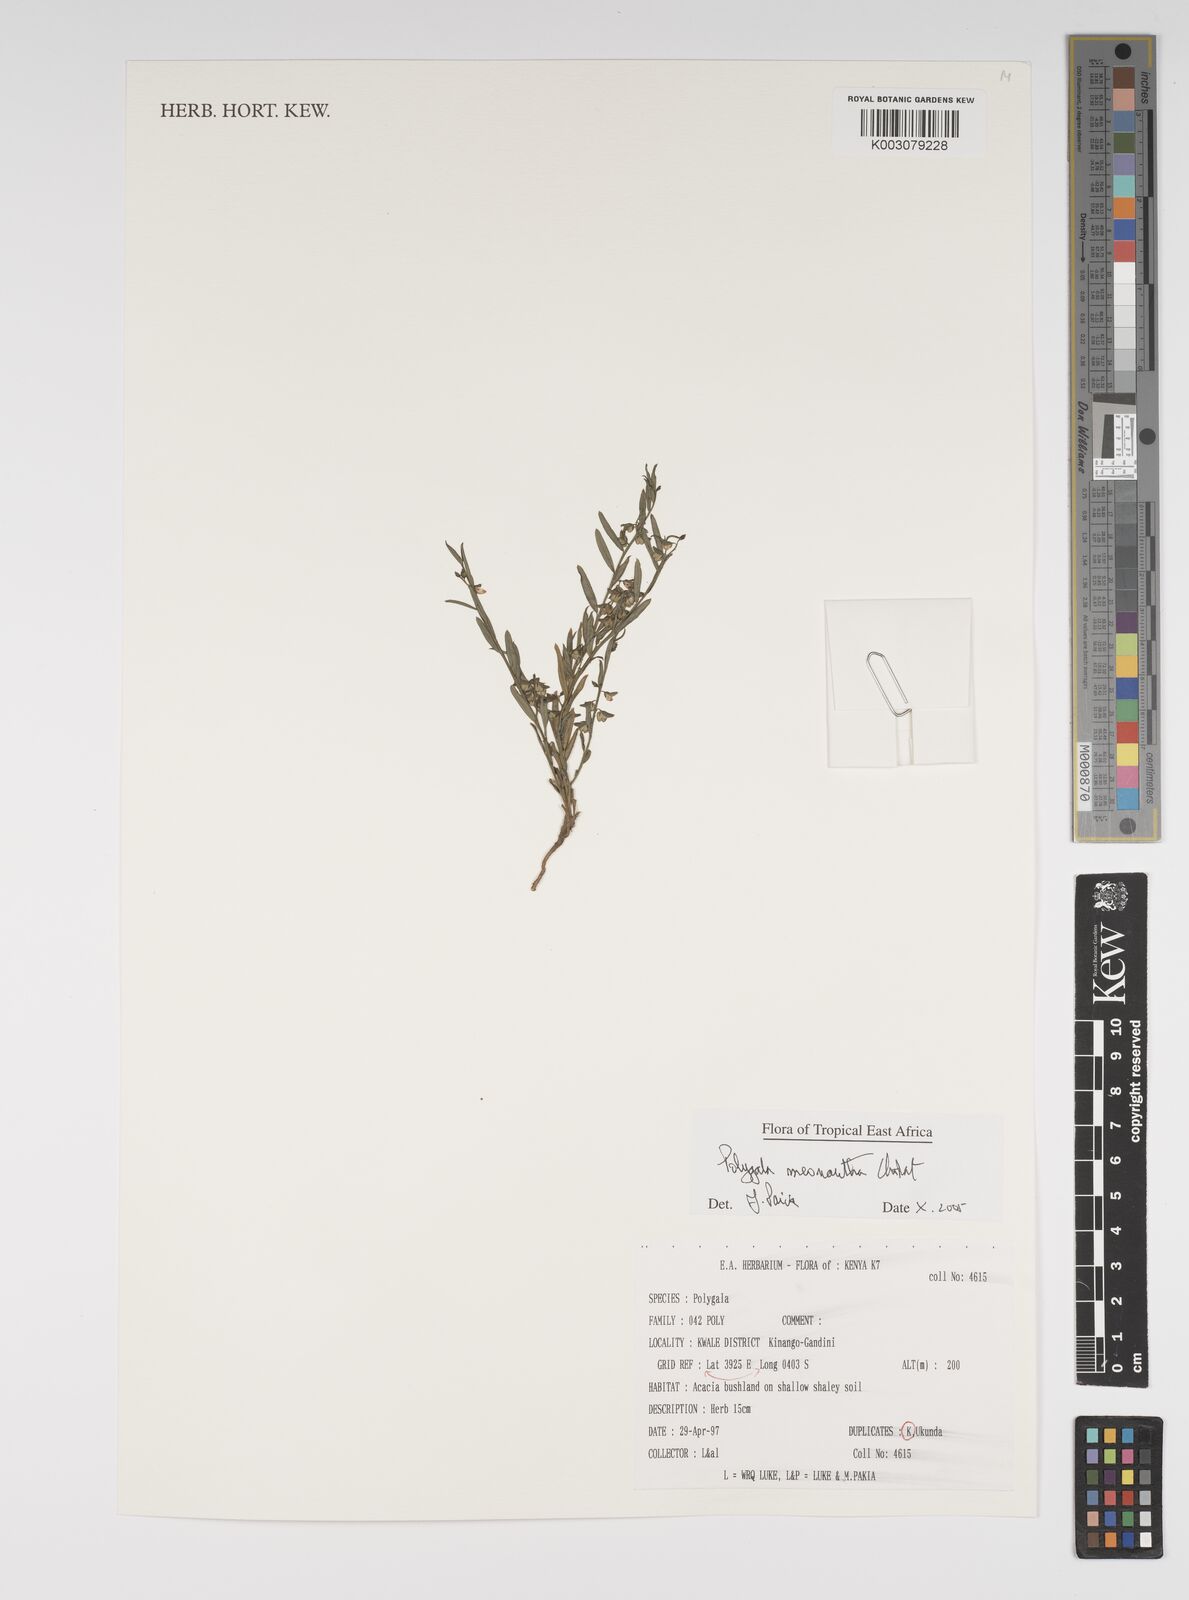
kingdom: Plantae
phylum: Tracheophyta
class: Magnoliopsida
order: Fabales
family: Polygalaceae
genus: Polygala
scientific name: Polygala meonantha
